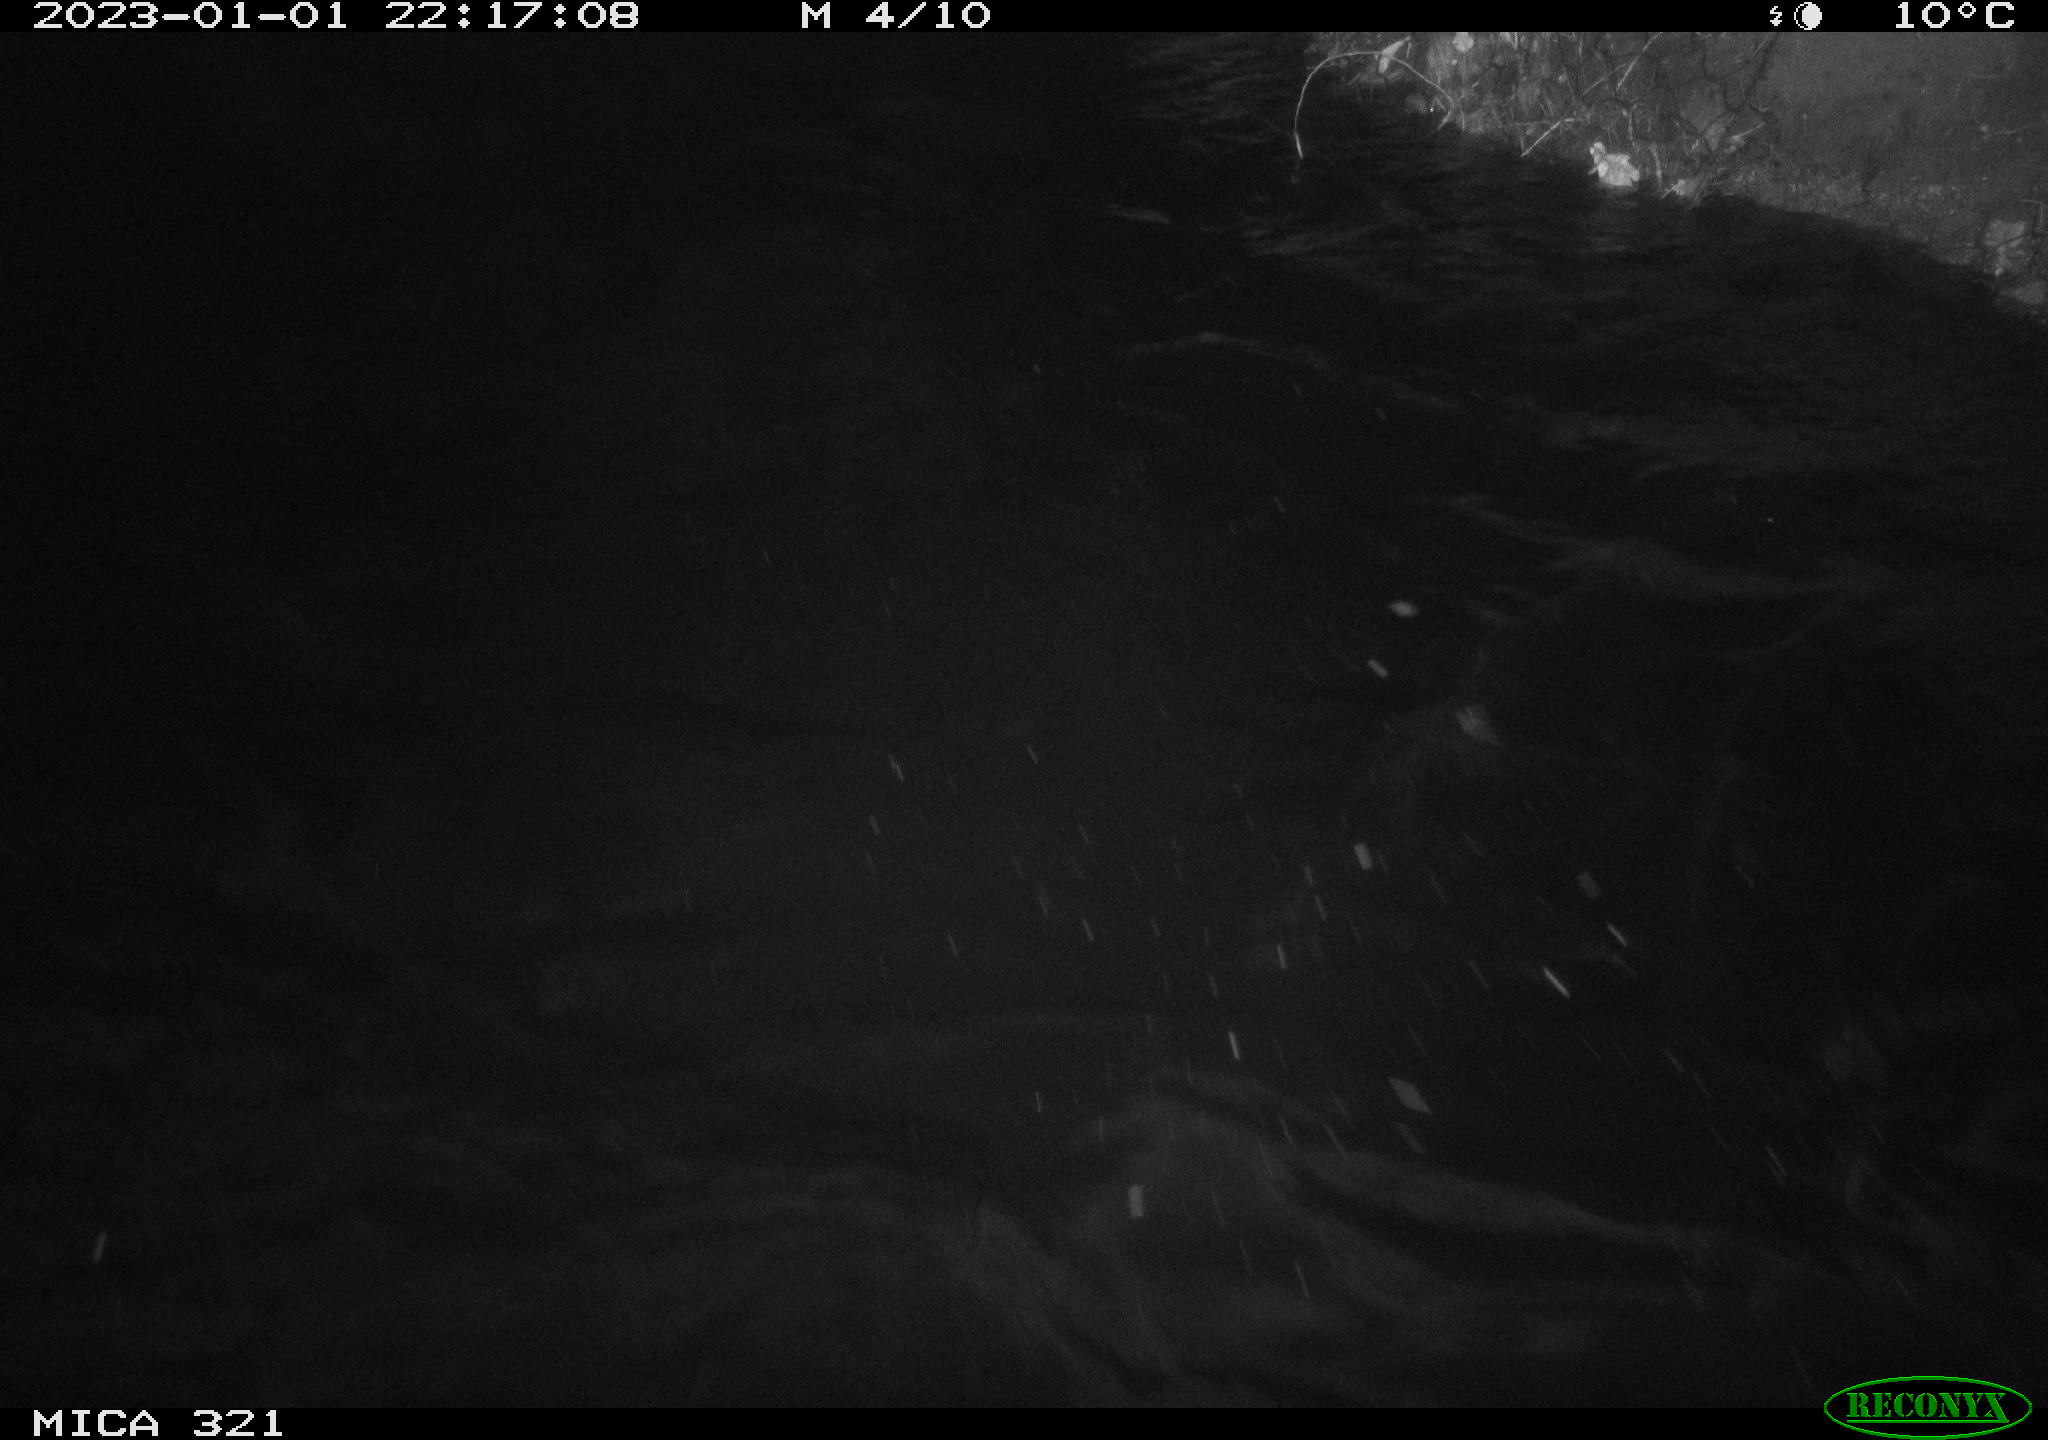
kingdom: Animalia
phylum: Chordata
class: Mammalia
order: Rodentia
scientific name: Rodentia
